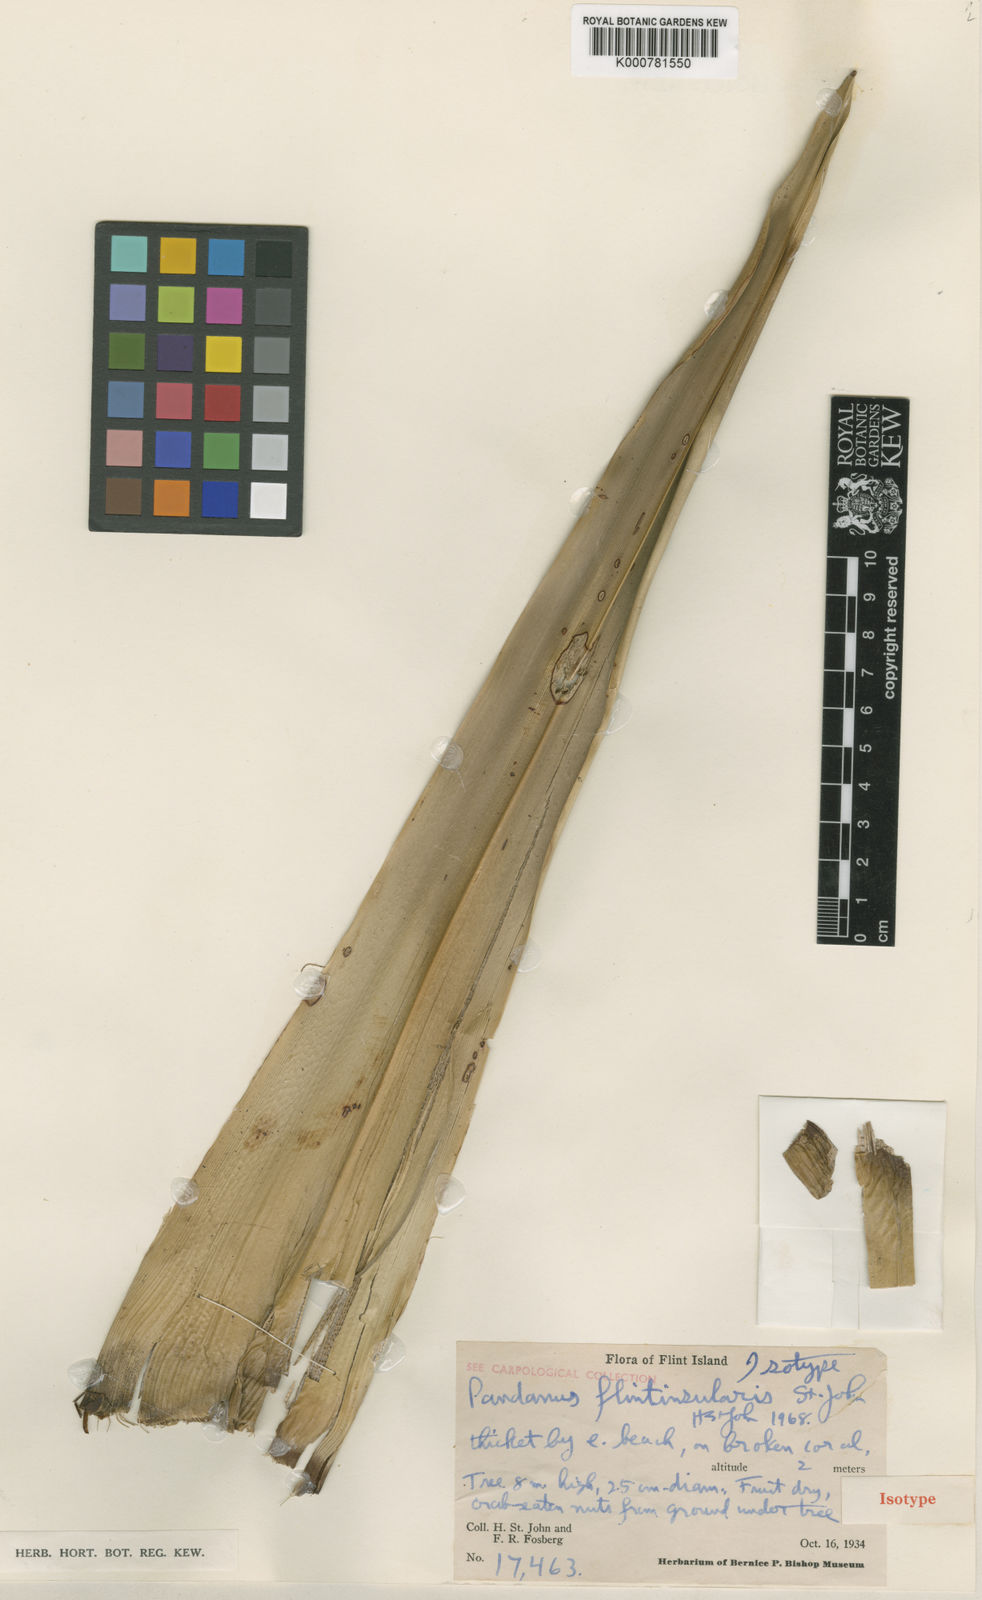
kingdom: Plantae
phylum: Tracheophyta
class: Liliopsida
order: Pandanales
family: Pandanaceae
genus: Pandanus
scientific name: Pandanus tectorius
